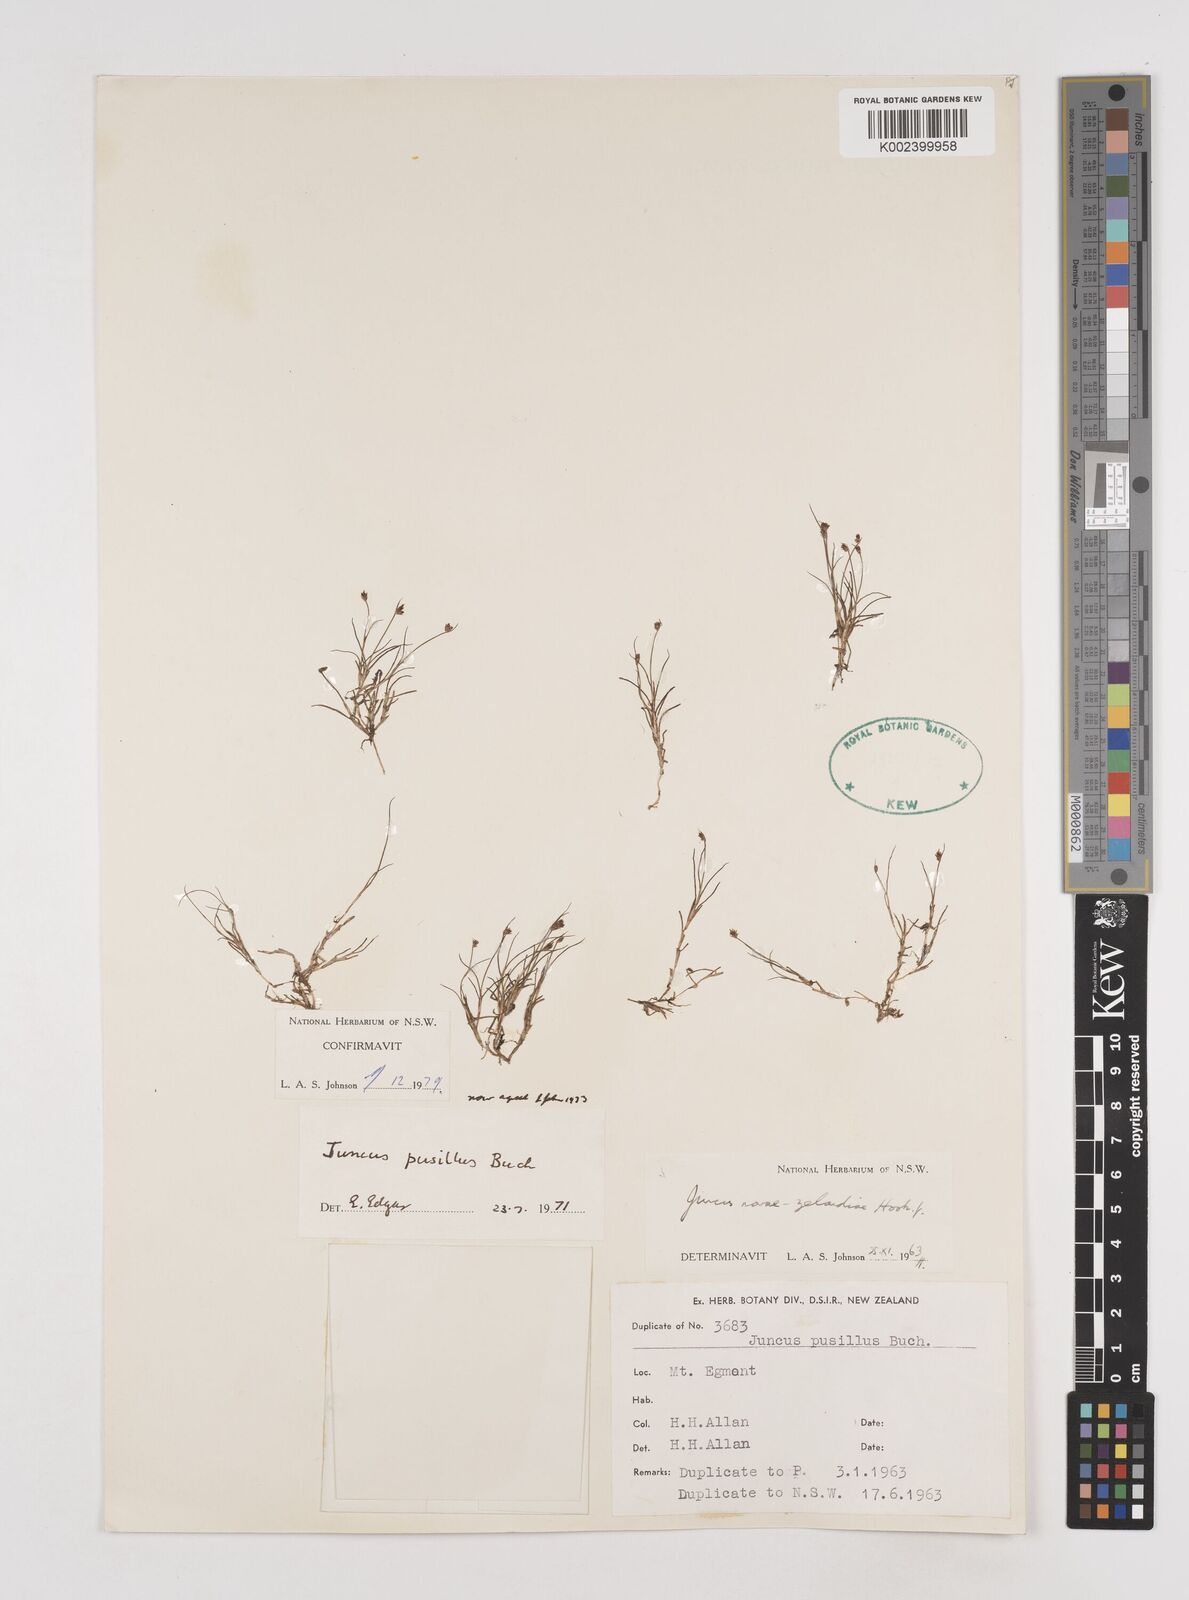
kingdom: Plantae
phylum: Tracheophyta
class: Liliopsida
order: Poales
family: Juncaceae
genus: Juncus
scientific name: Juncus pusillus
